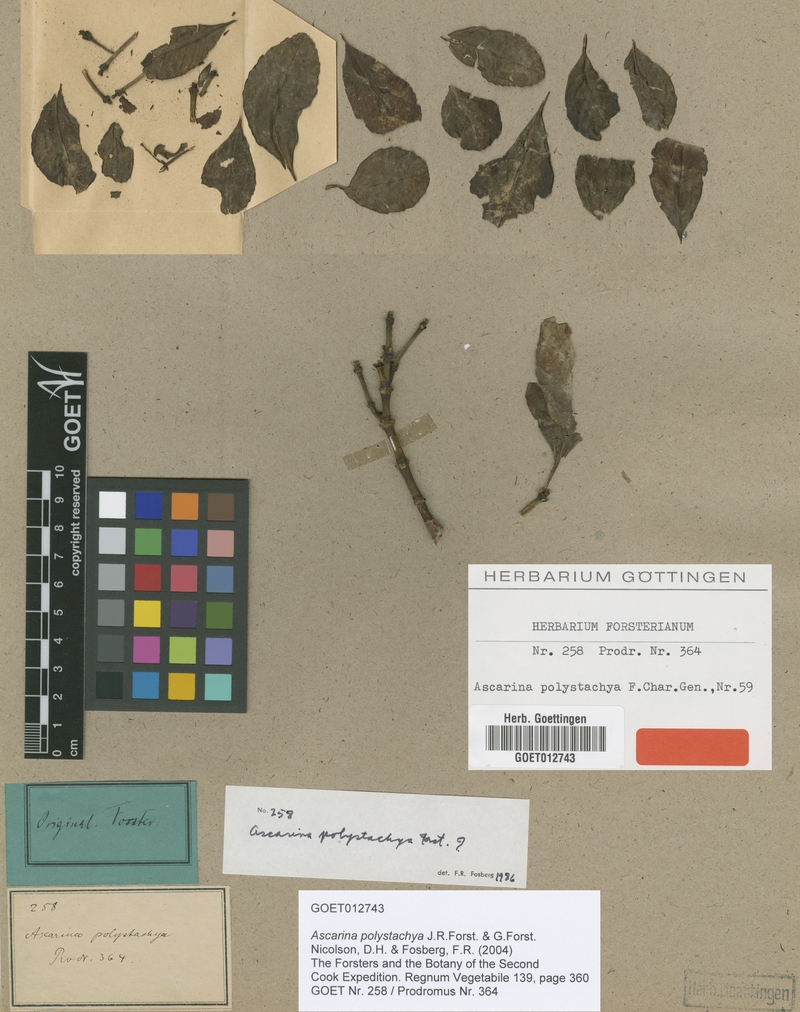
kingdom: Plantae
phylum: Tracheophyta
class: Magnoliopsida
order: Chloranthales
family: Chloranthaceae
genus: Ascarina
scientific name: Ascarina polystachya
